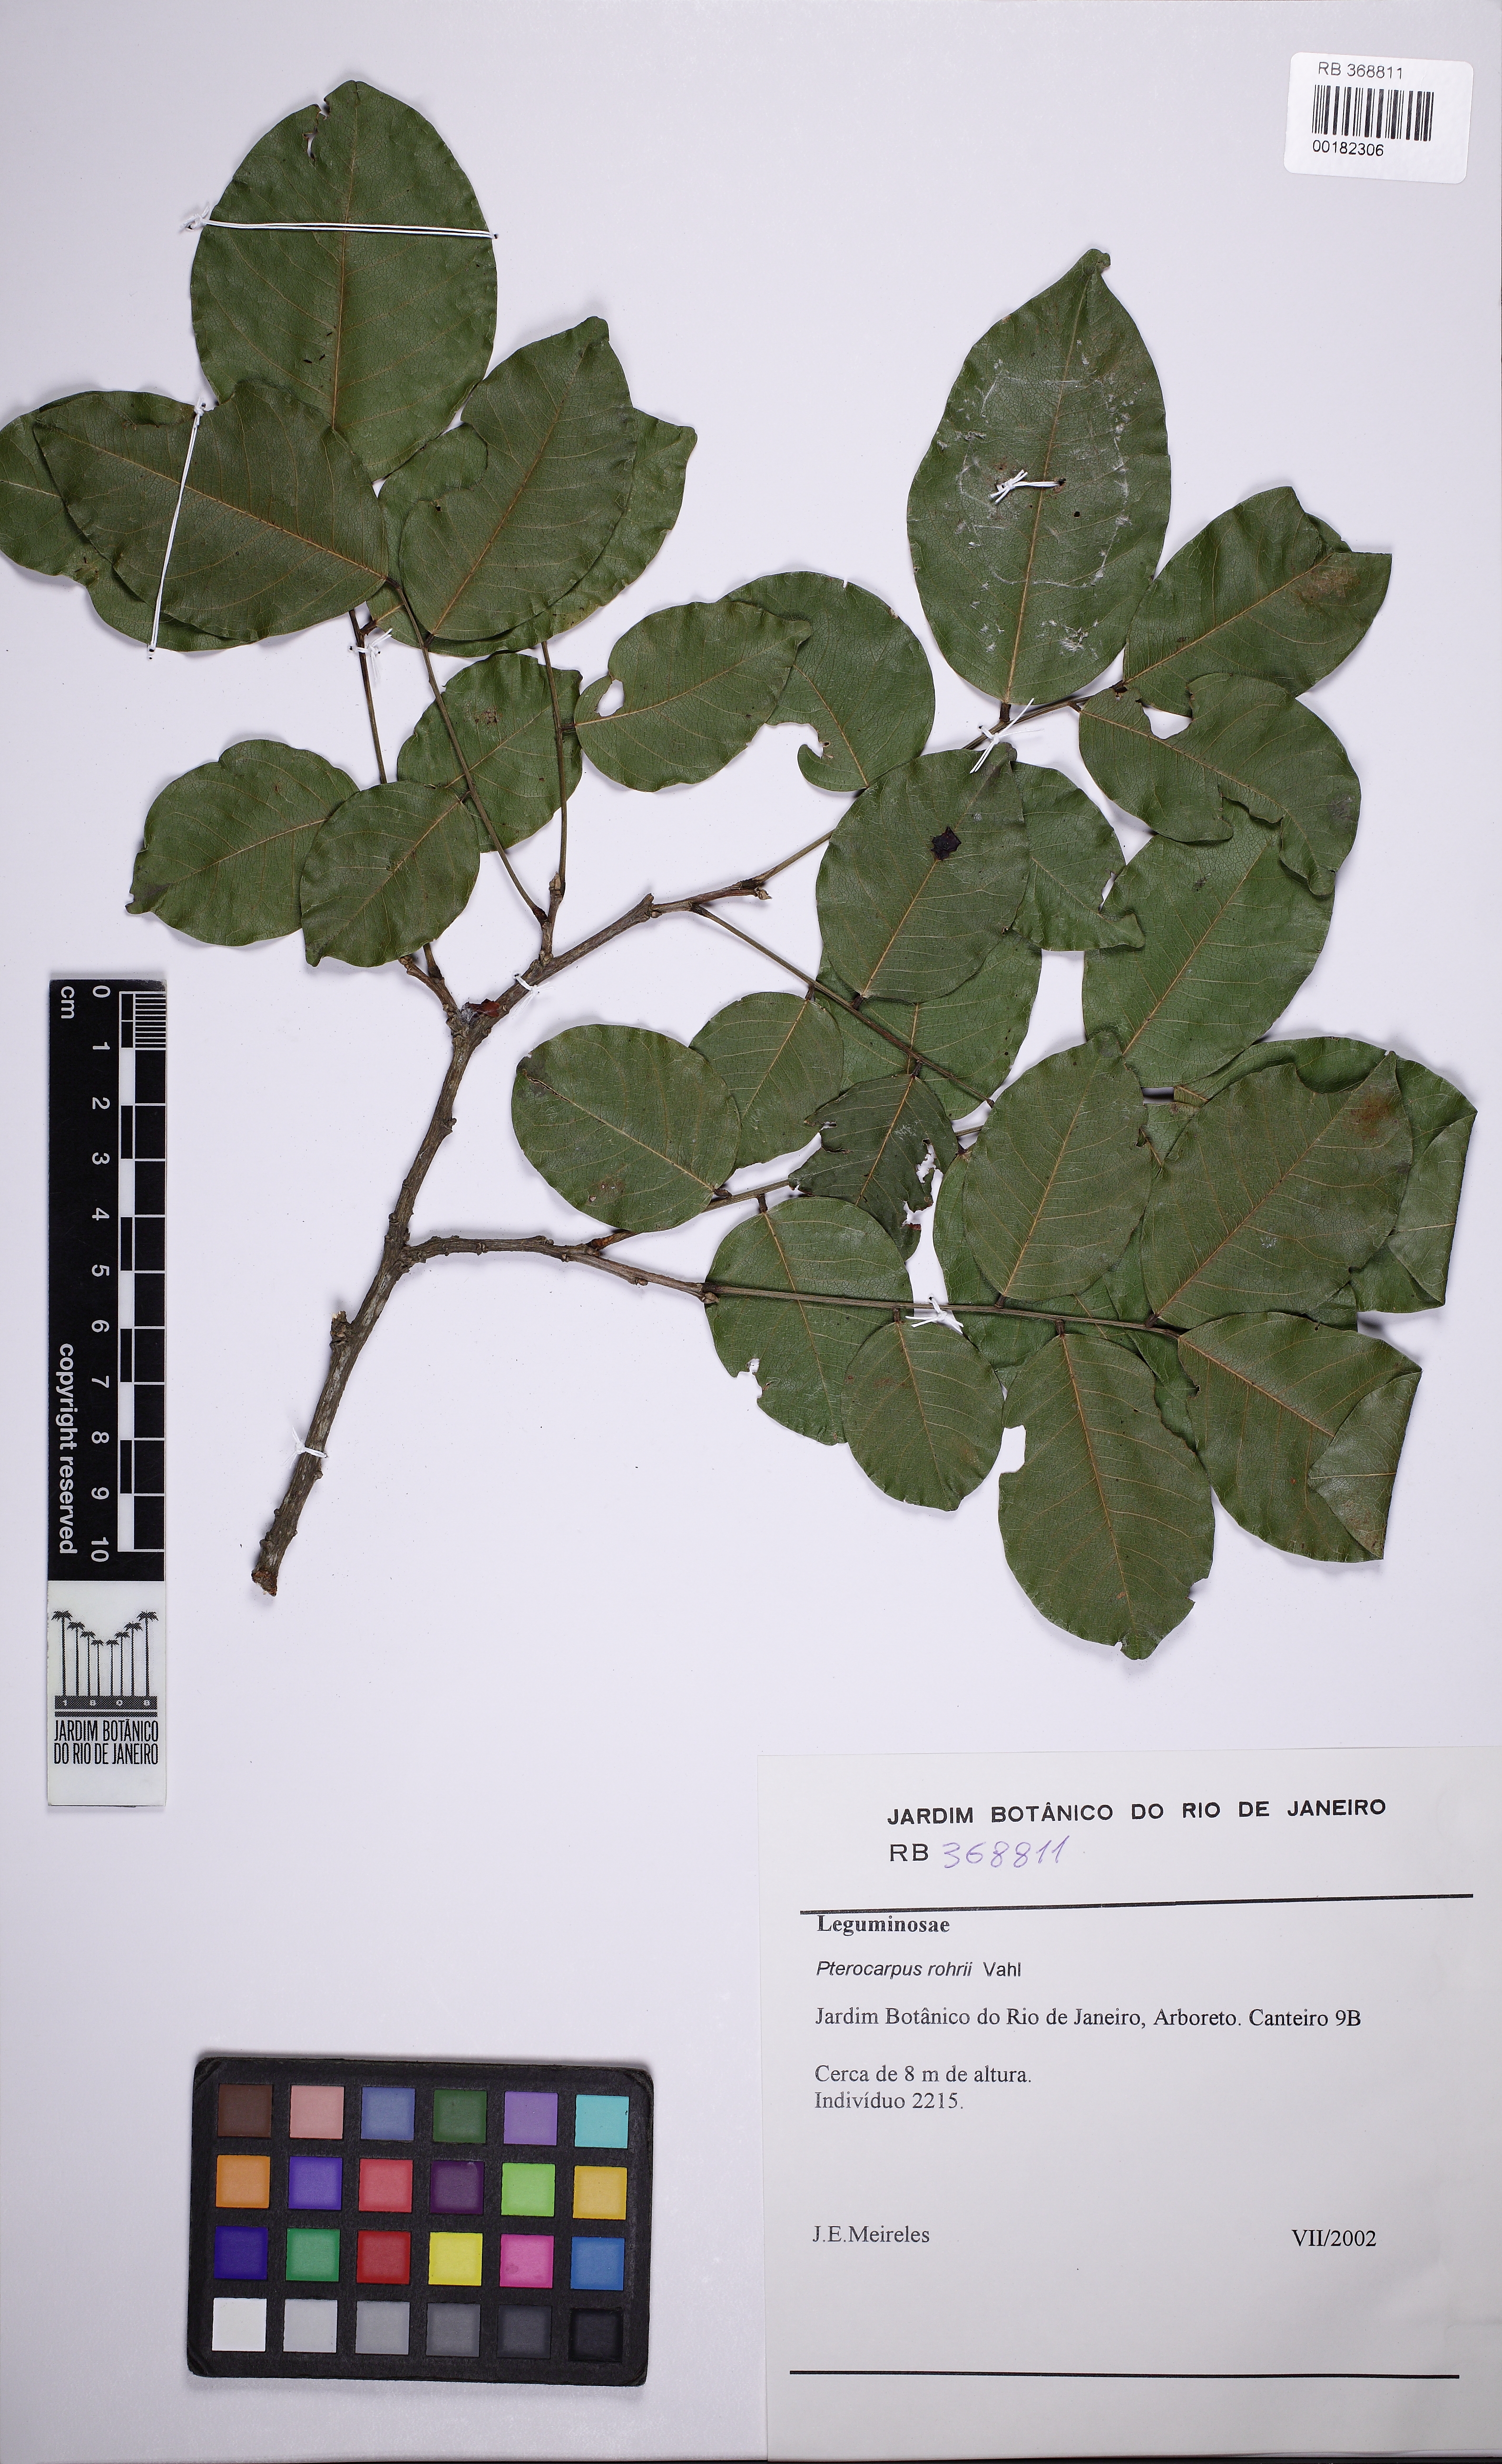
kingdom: Plantae
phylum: Tracheophyta
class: Magnoliopsida
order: Fabales
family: Fabaceae
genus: Pterocarpus
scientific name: Pterocarpus rohrii
